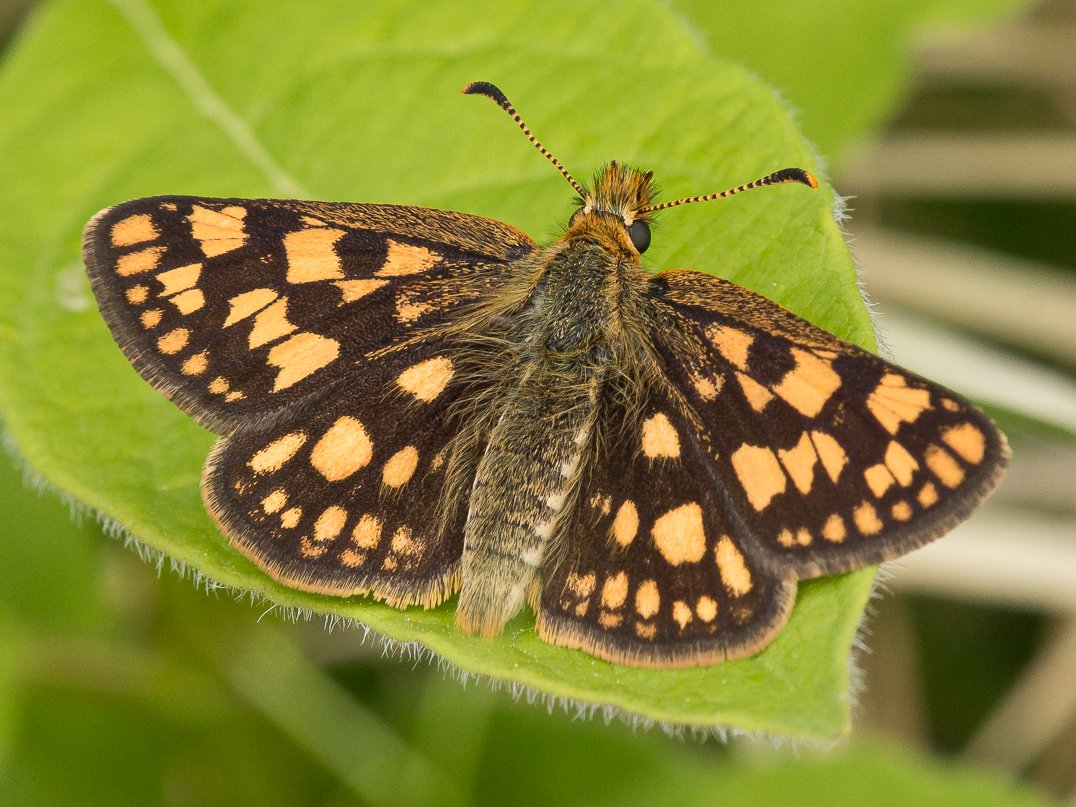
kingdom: Animalia
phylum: Arthropoda
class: Insecta
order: Lepidoptera
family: Hesperiidae
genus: Carterocephalus
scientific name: Carterocephalus palaemon
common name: Chequered Skipper
